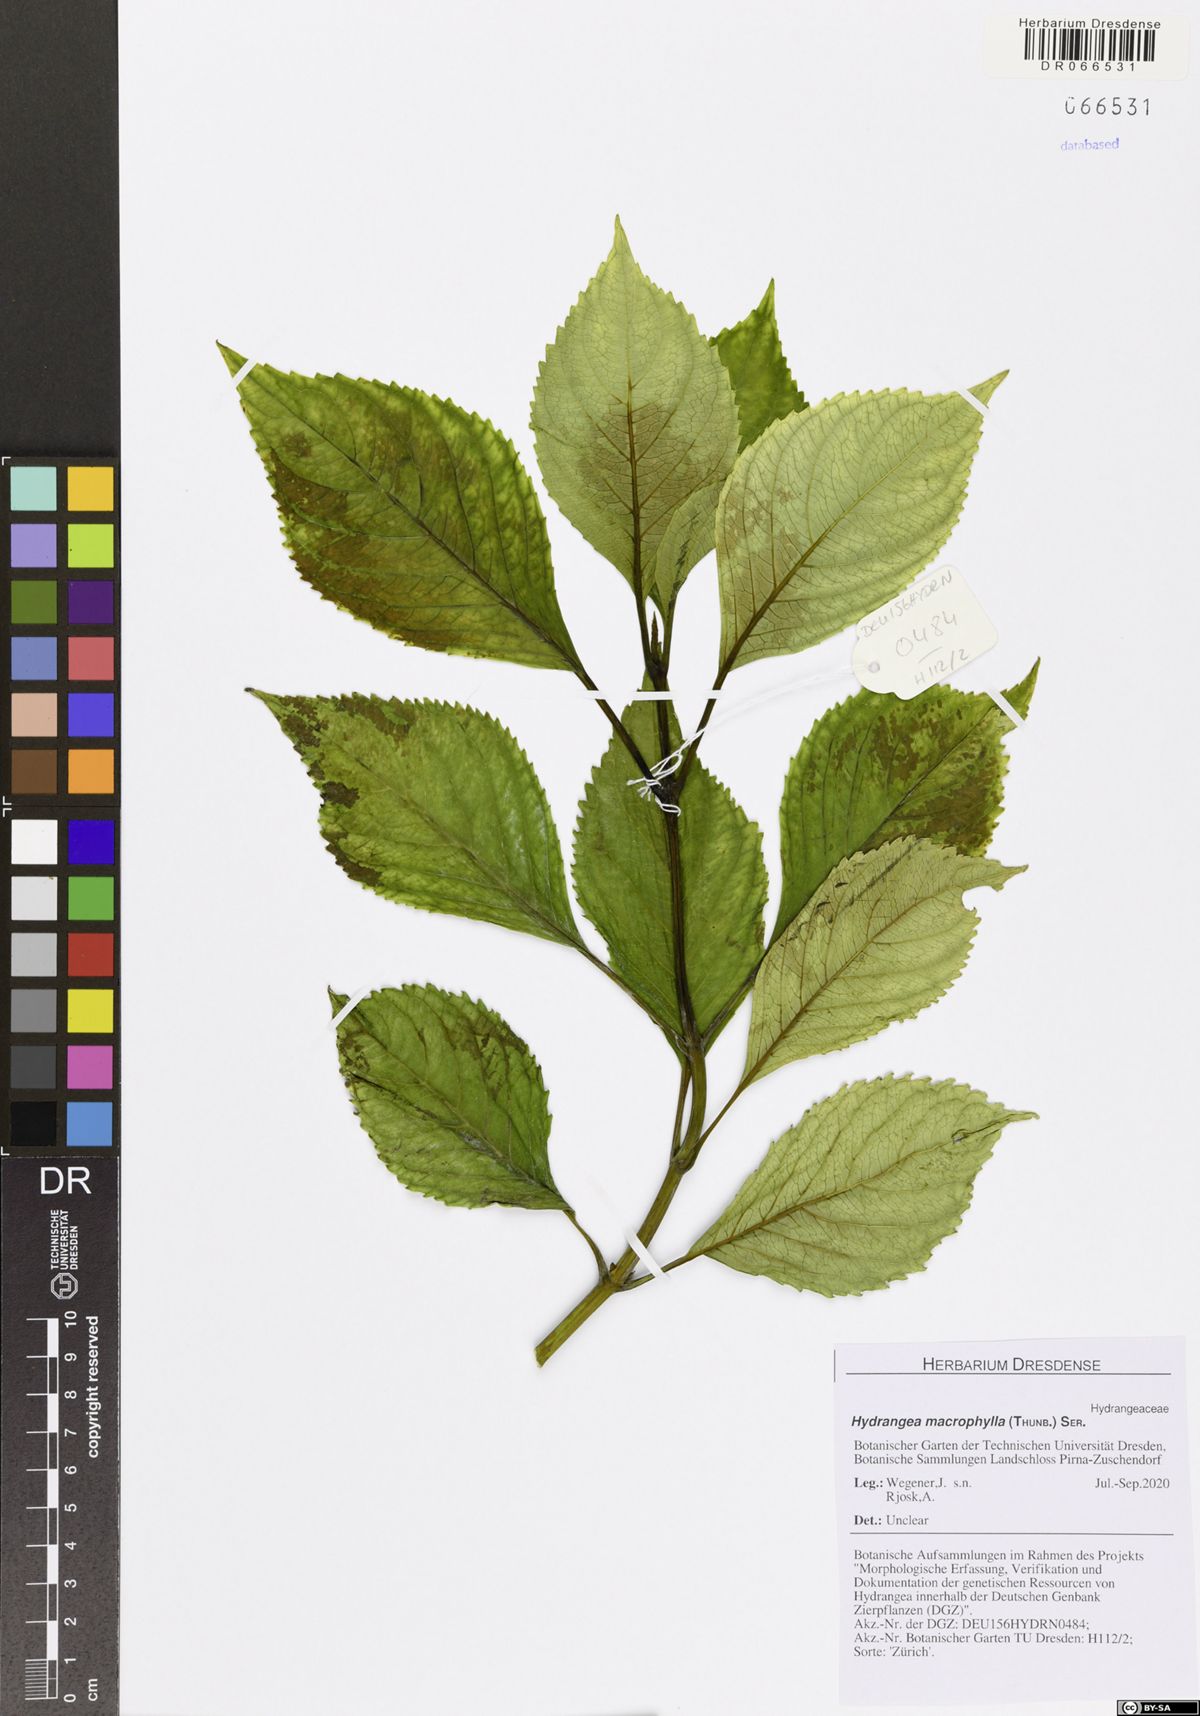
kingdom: Plantae
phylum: Tracheophyta
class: Magnoliopsida
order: Cornales
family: Hydrangeaceae
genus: Hydrangea
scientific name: Hydrangea macrophylla
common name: Hydrangea
